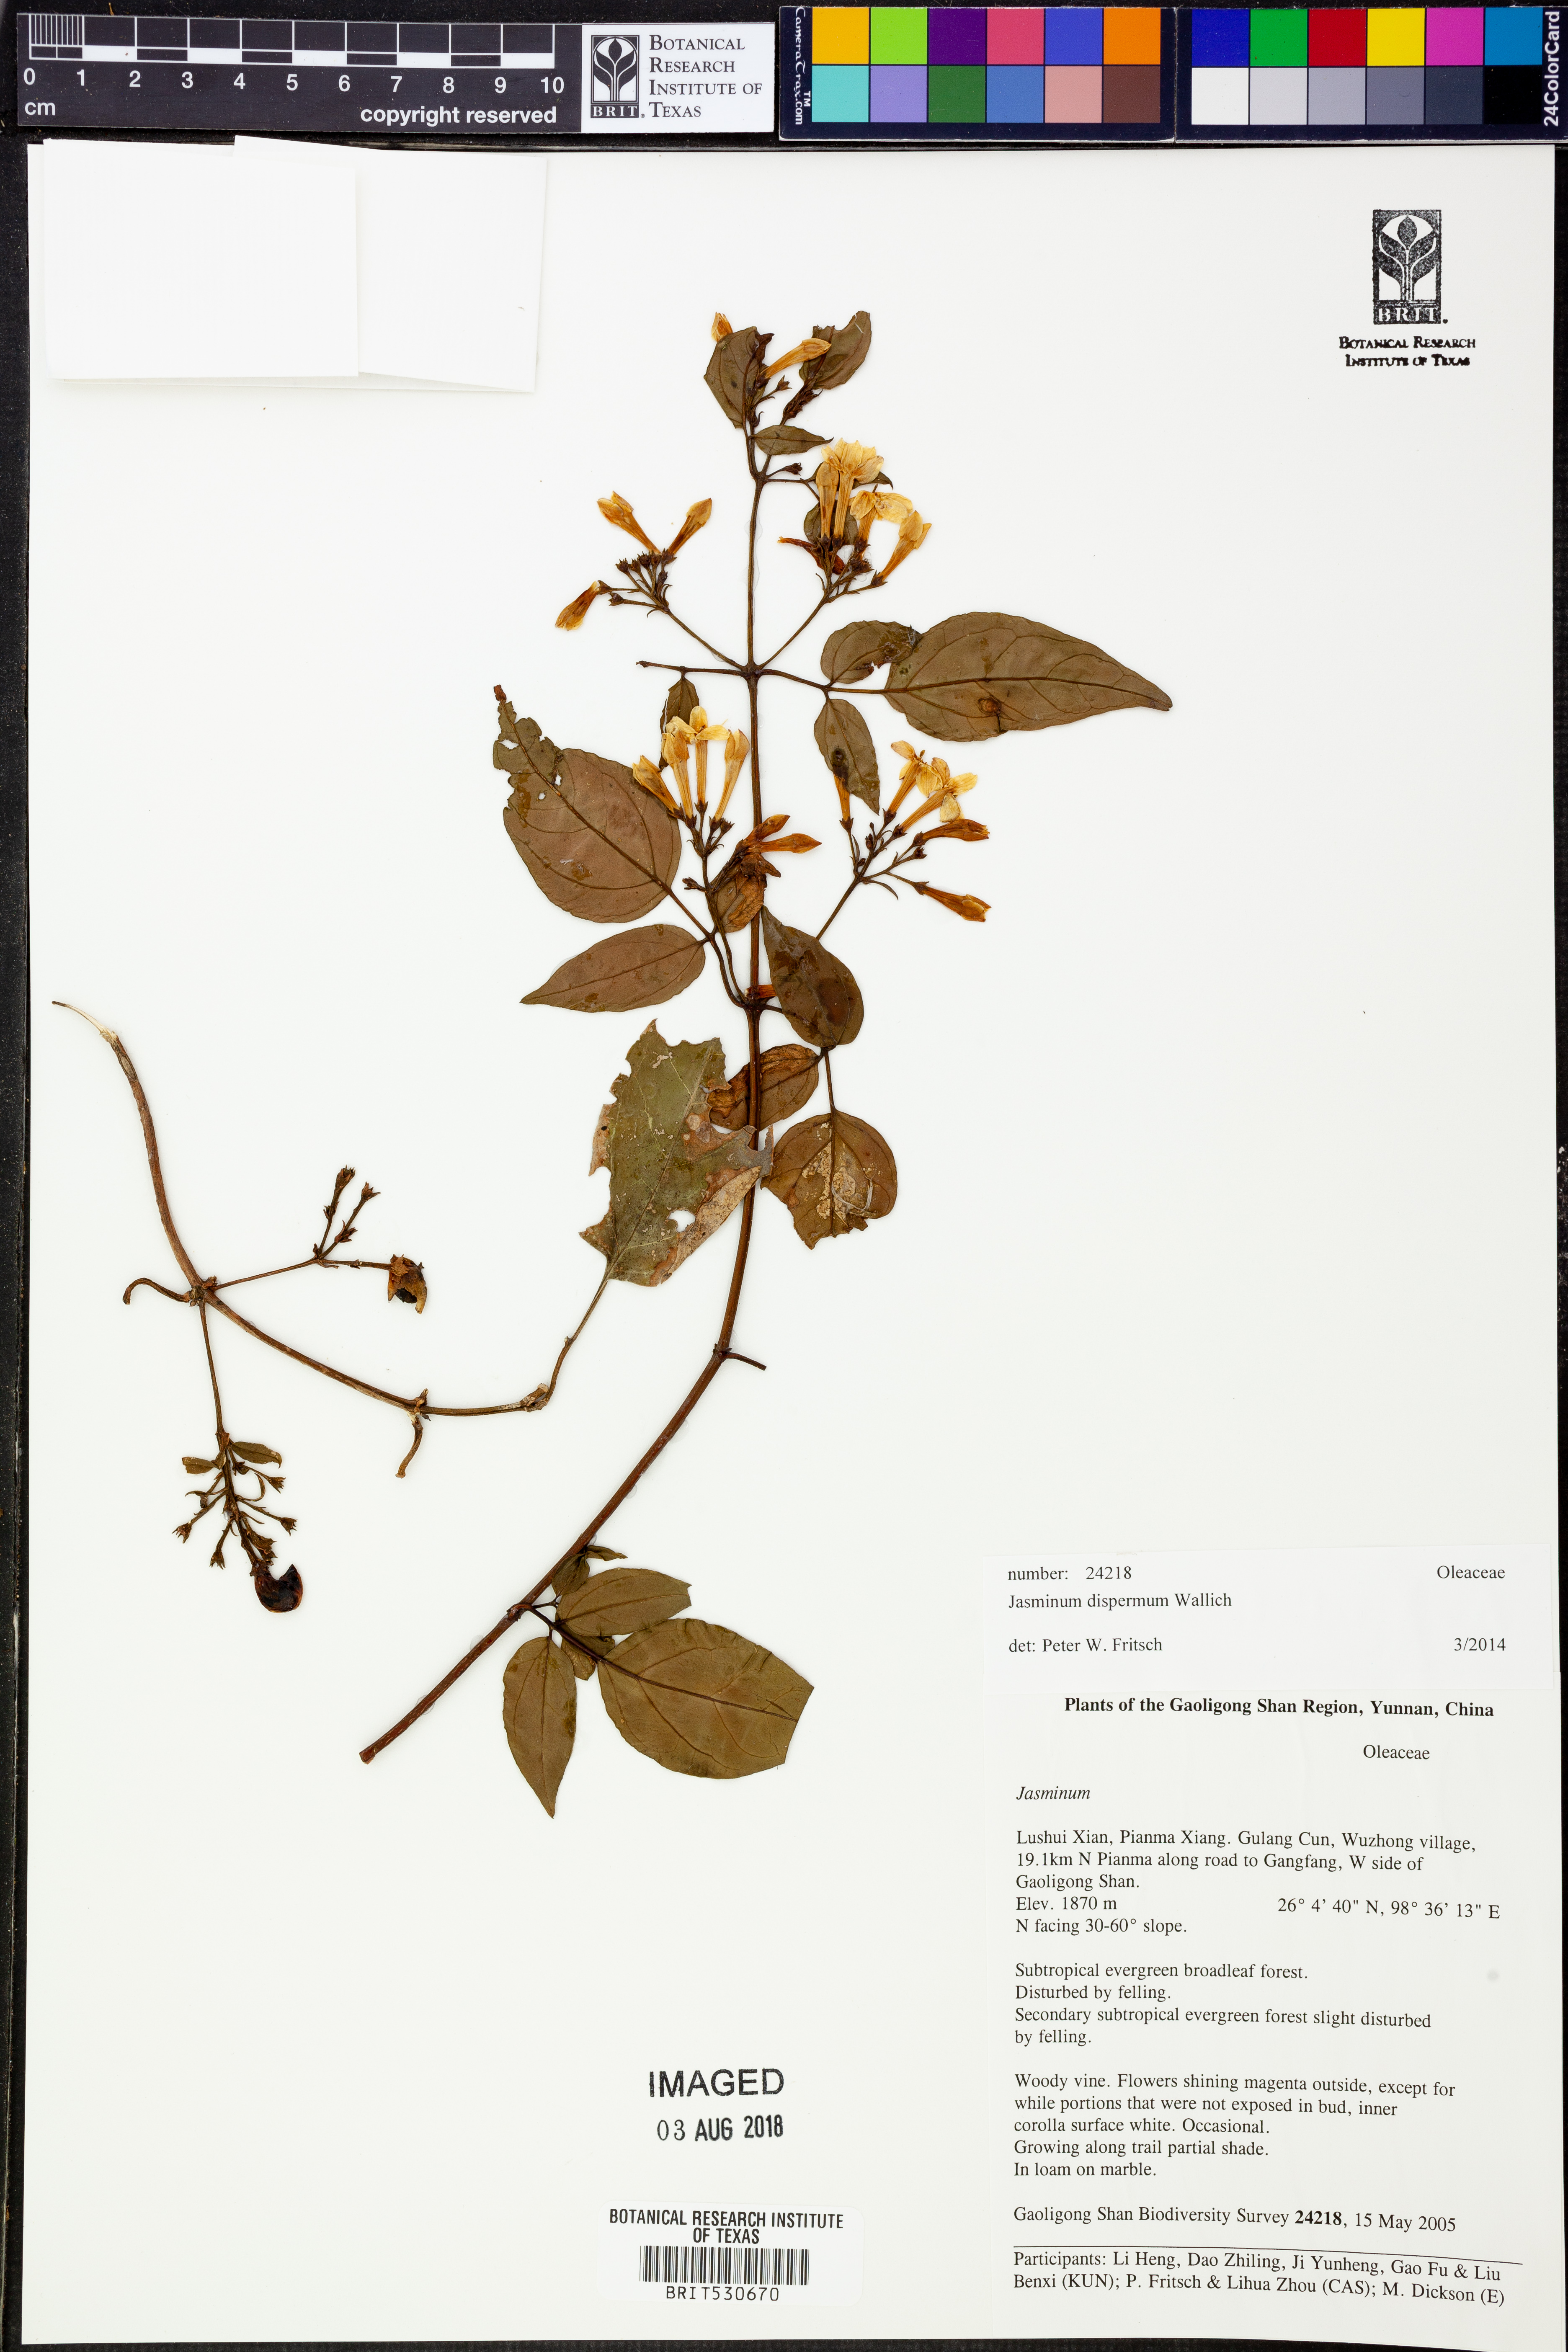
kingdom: Plantae
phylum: Tracheophyta
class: Magnoliopsida
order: Lamiales
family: Oleaceae
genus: Jasminum
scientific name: Jasminum dispermum
